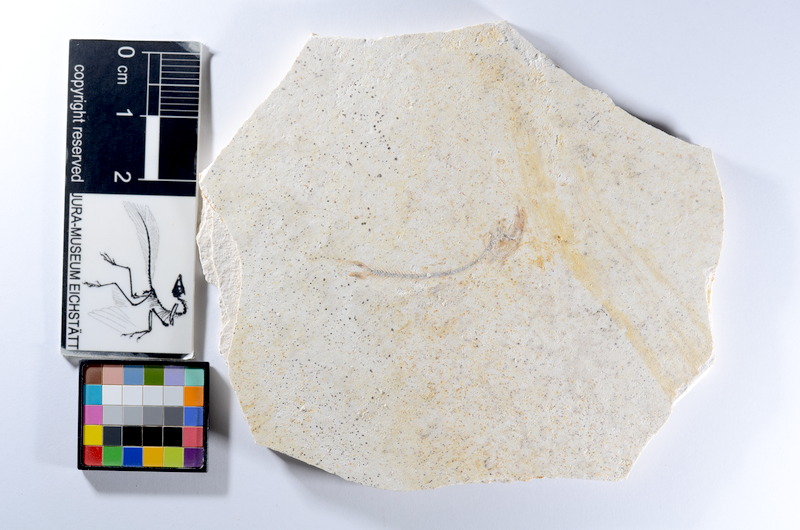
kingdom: Animalia
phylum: Chordata
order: Salmoniformes
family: Orthogonikleithridae
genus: Orthogonikleithrus
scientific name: Orthogonikleithrus hoelli
